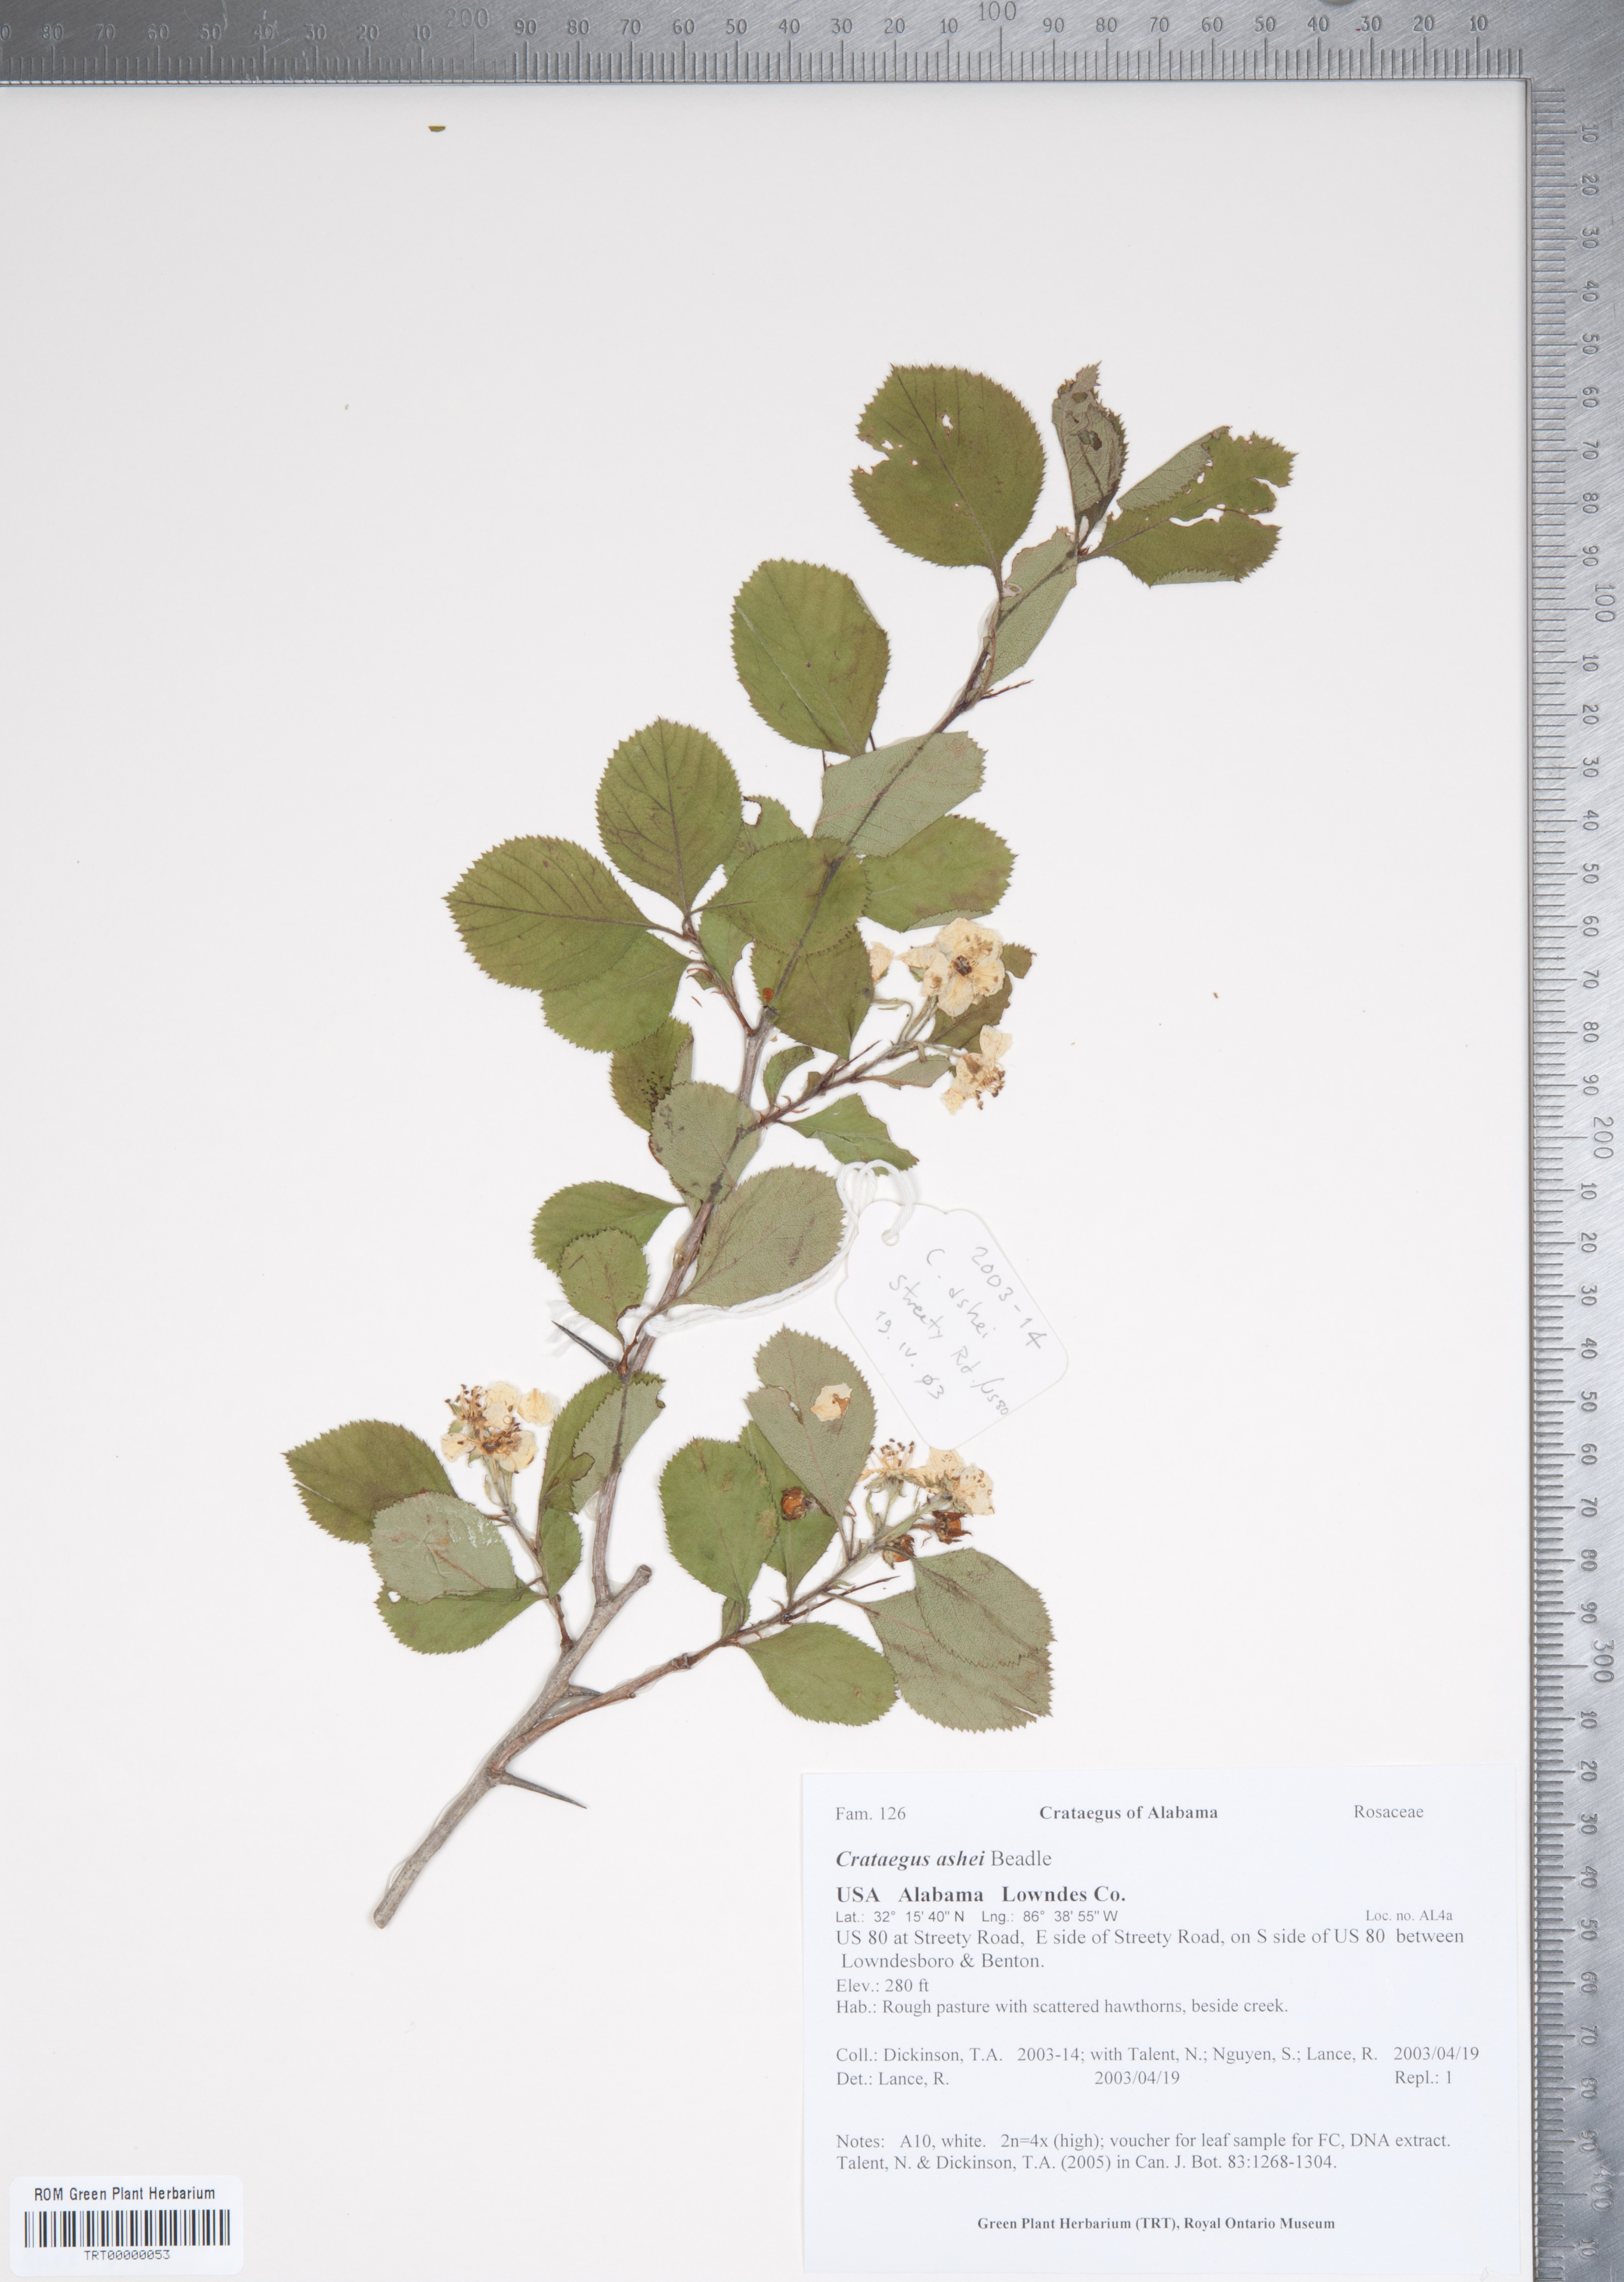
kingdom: Plantae
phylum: Tracheophyta
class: Magnoliopsida
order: Rosales
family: Rosaceae
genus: Crataegus
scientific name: Crataegus ashei
